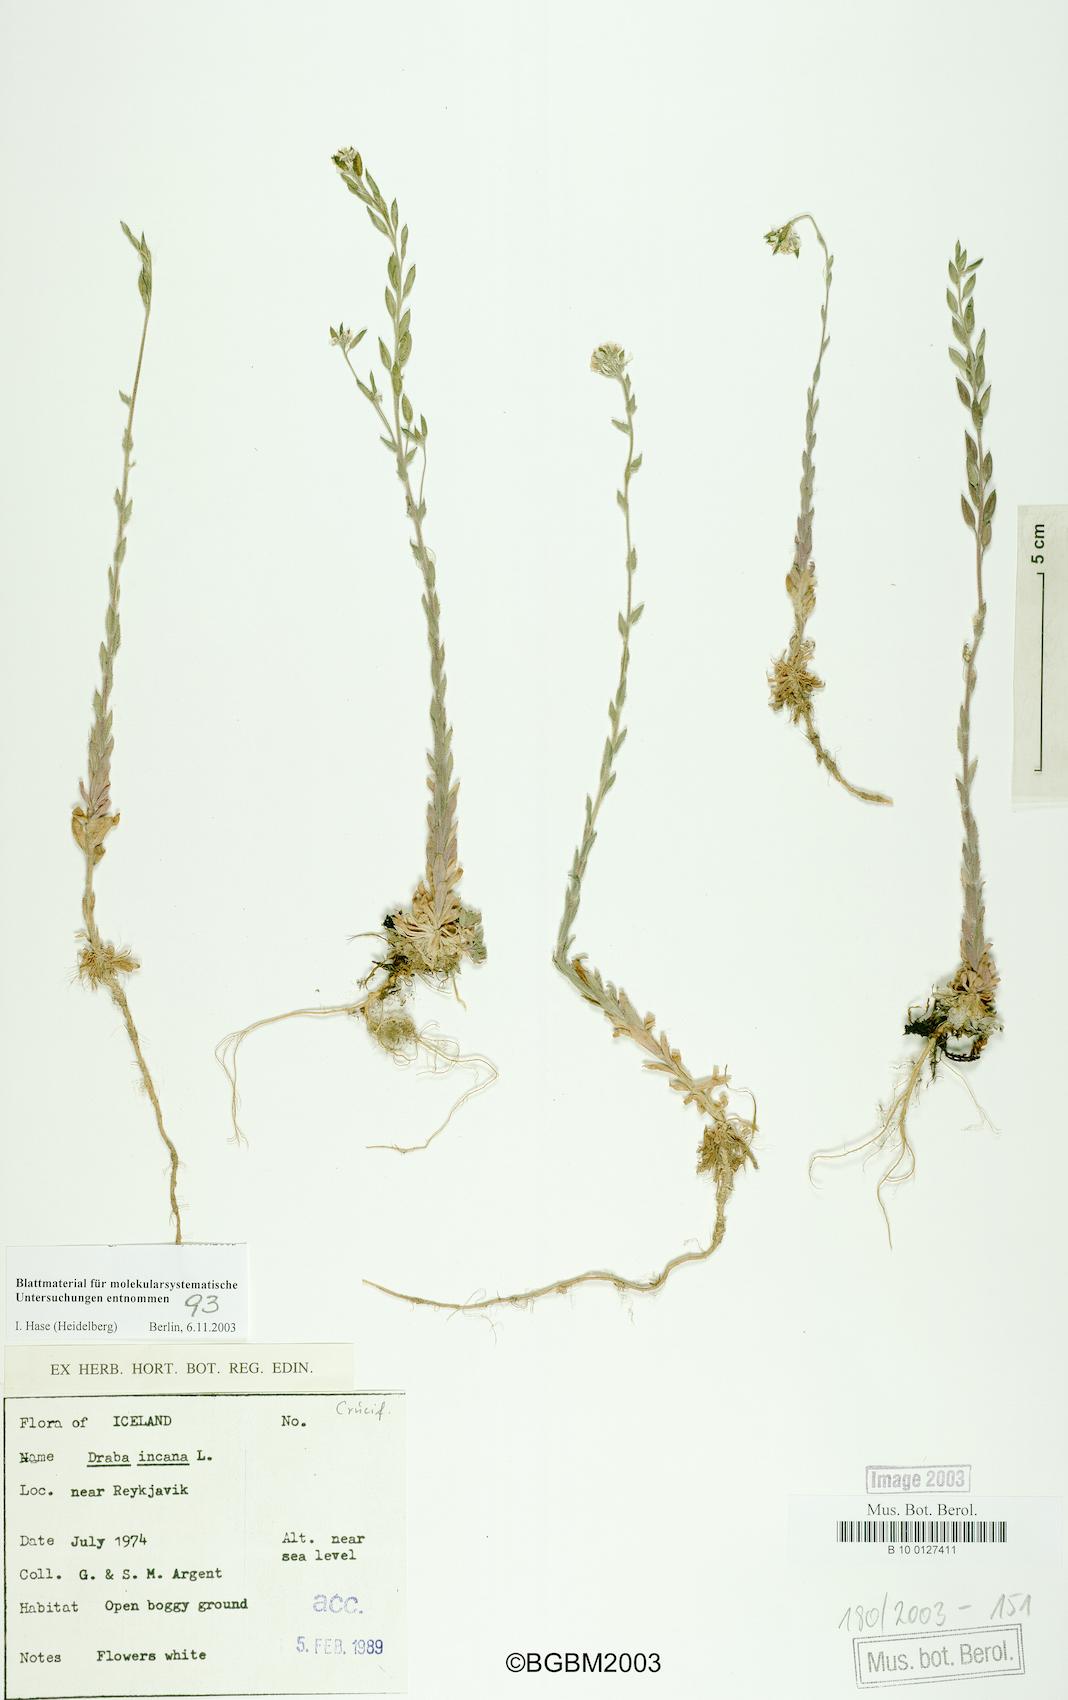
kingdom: Plantae
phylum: Tracheophyta
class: Magnoliopsida
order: Brassicales
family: Brassicaceae
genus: Draba
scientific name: Draba incana
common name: Hoary whitlow-grass
